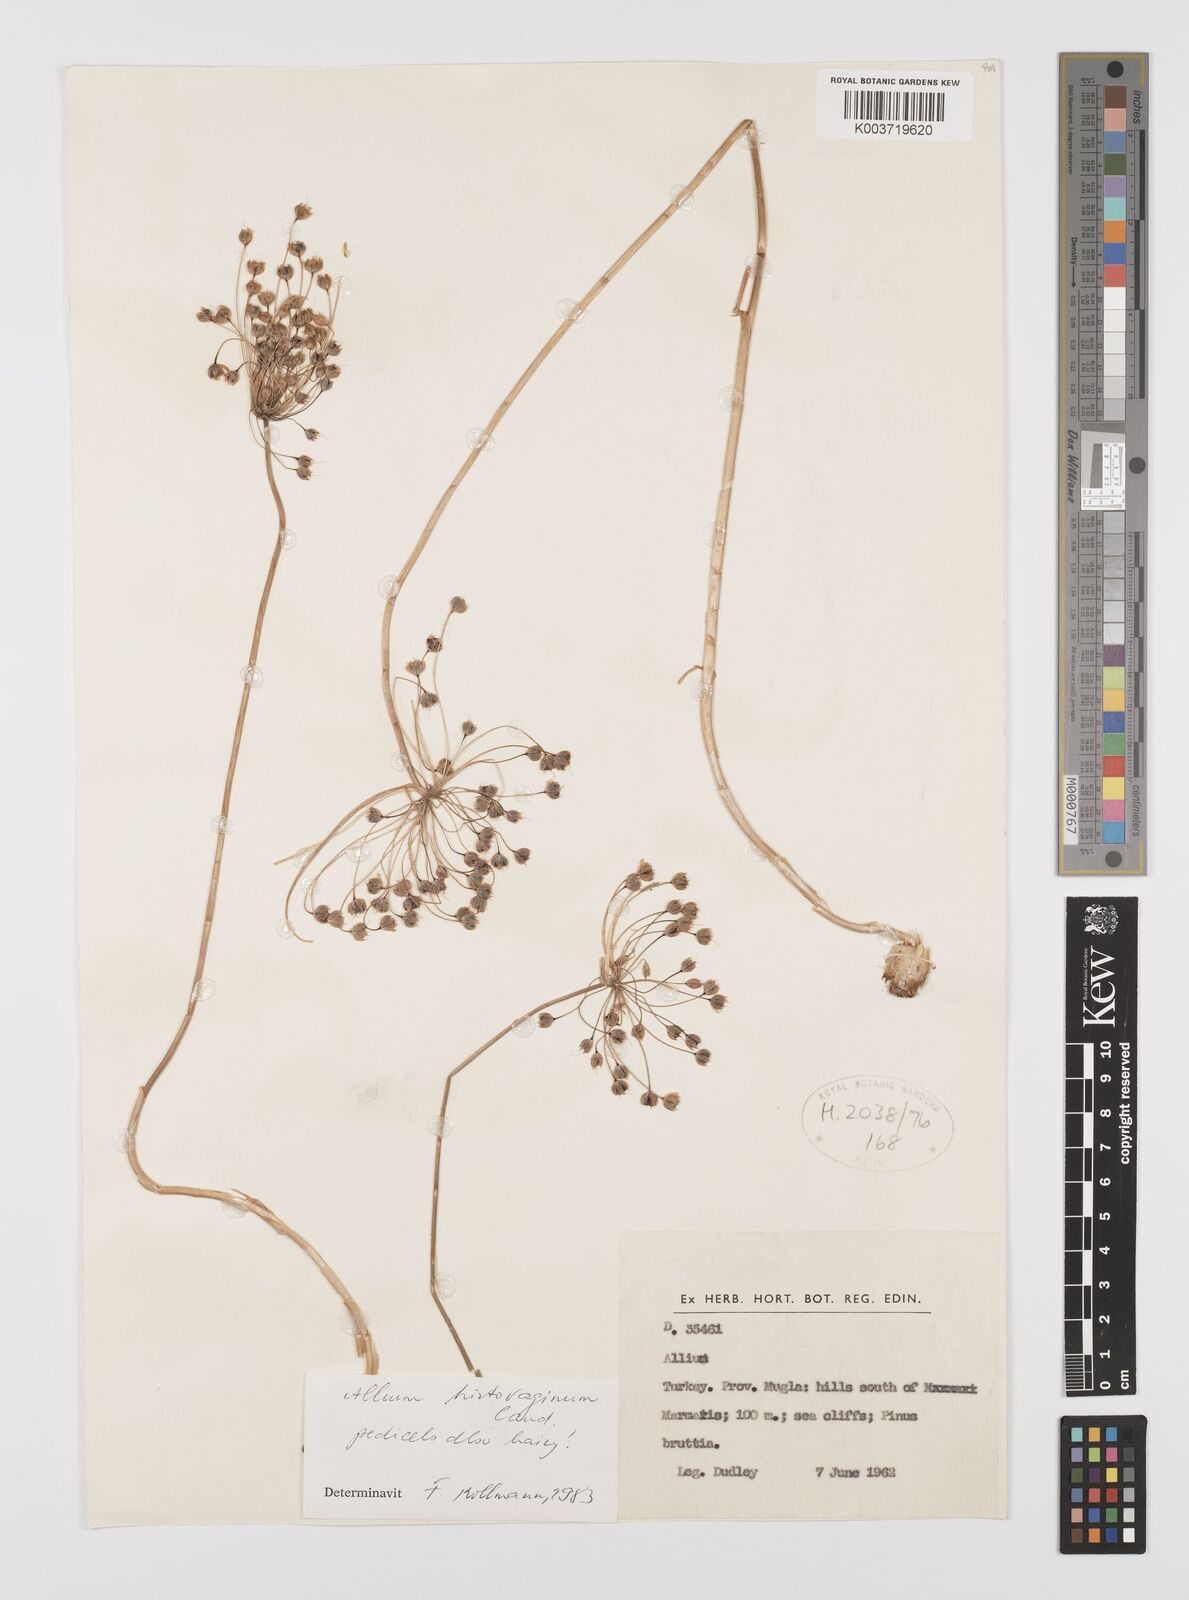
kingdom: Plantae
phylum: Tracheophyta
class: Liliopsida
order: Asparagales
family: Amaryllidaceae
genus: Allium
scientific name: Allium hirtovaginum
